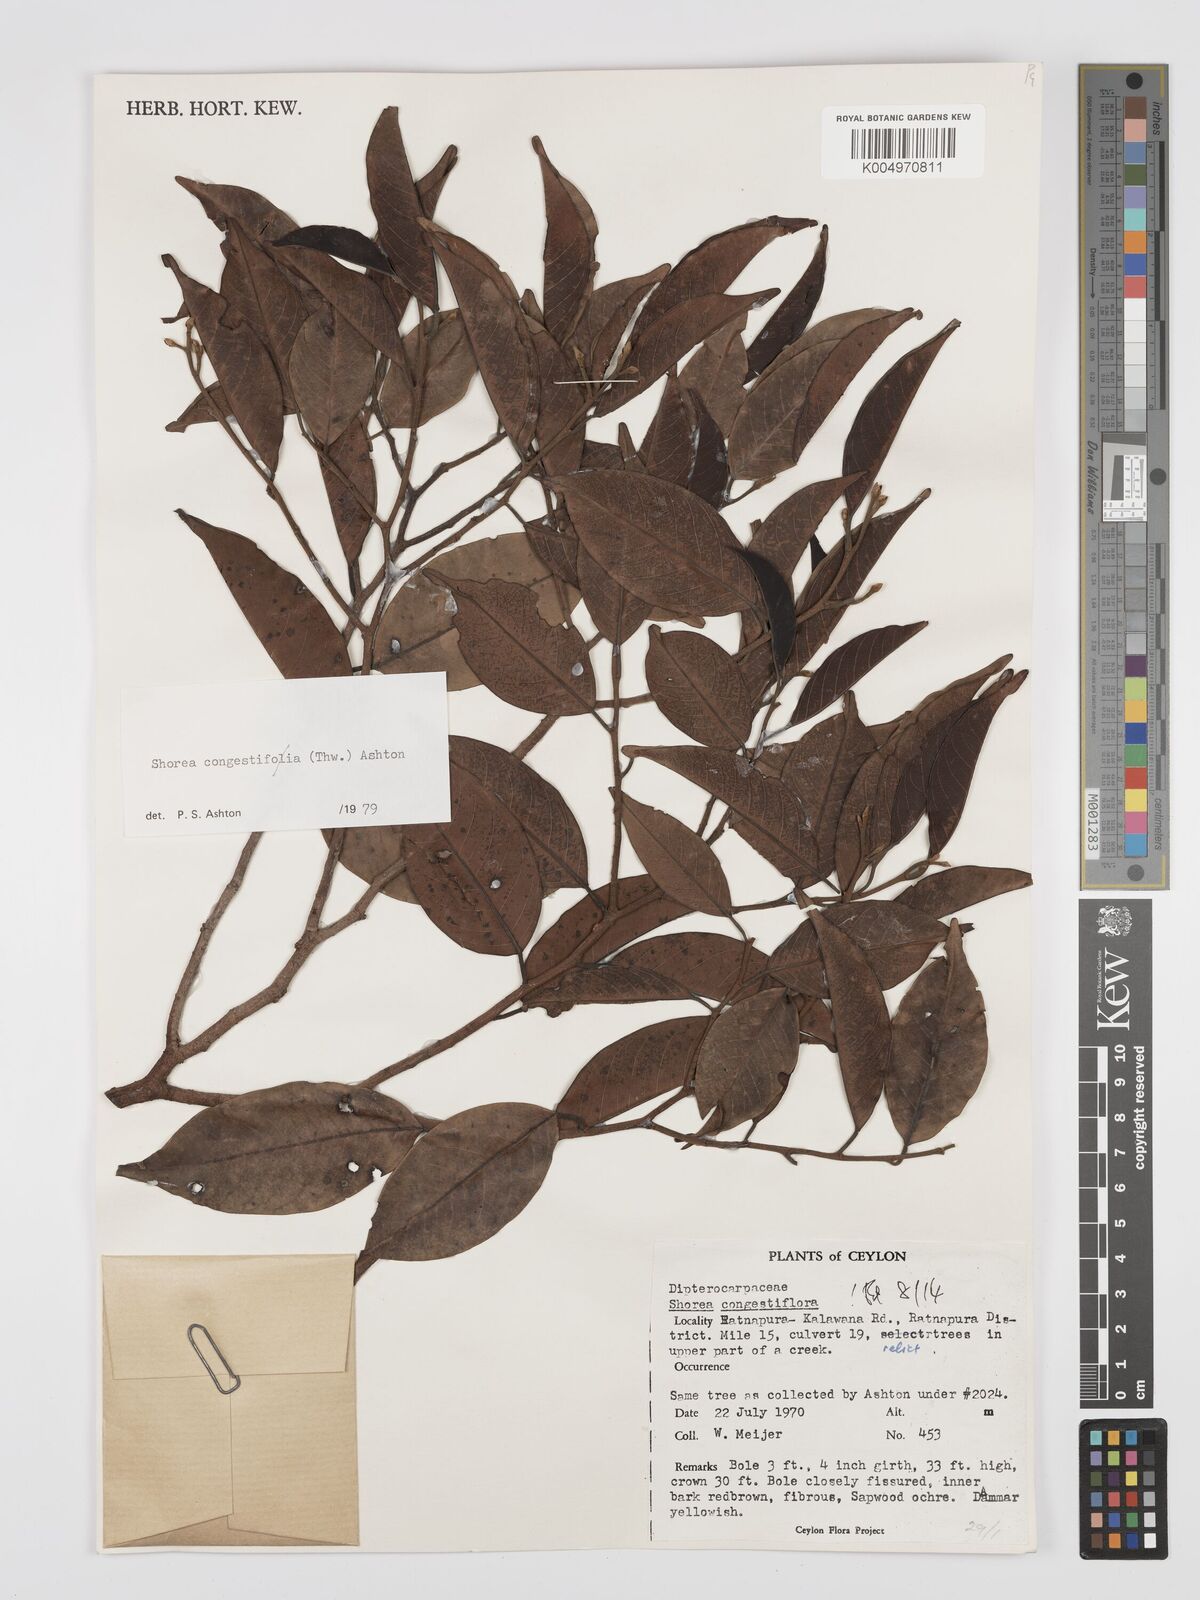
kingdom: Plantae
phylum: Tracheophyta
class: Magnoliopsida
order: Malvales
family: Dipterocarpaceae
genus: Doona
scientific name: Doona congestiflora
